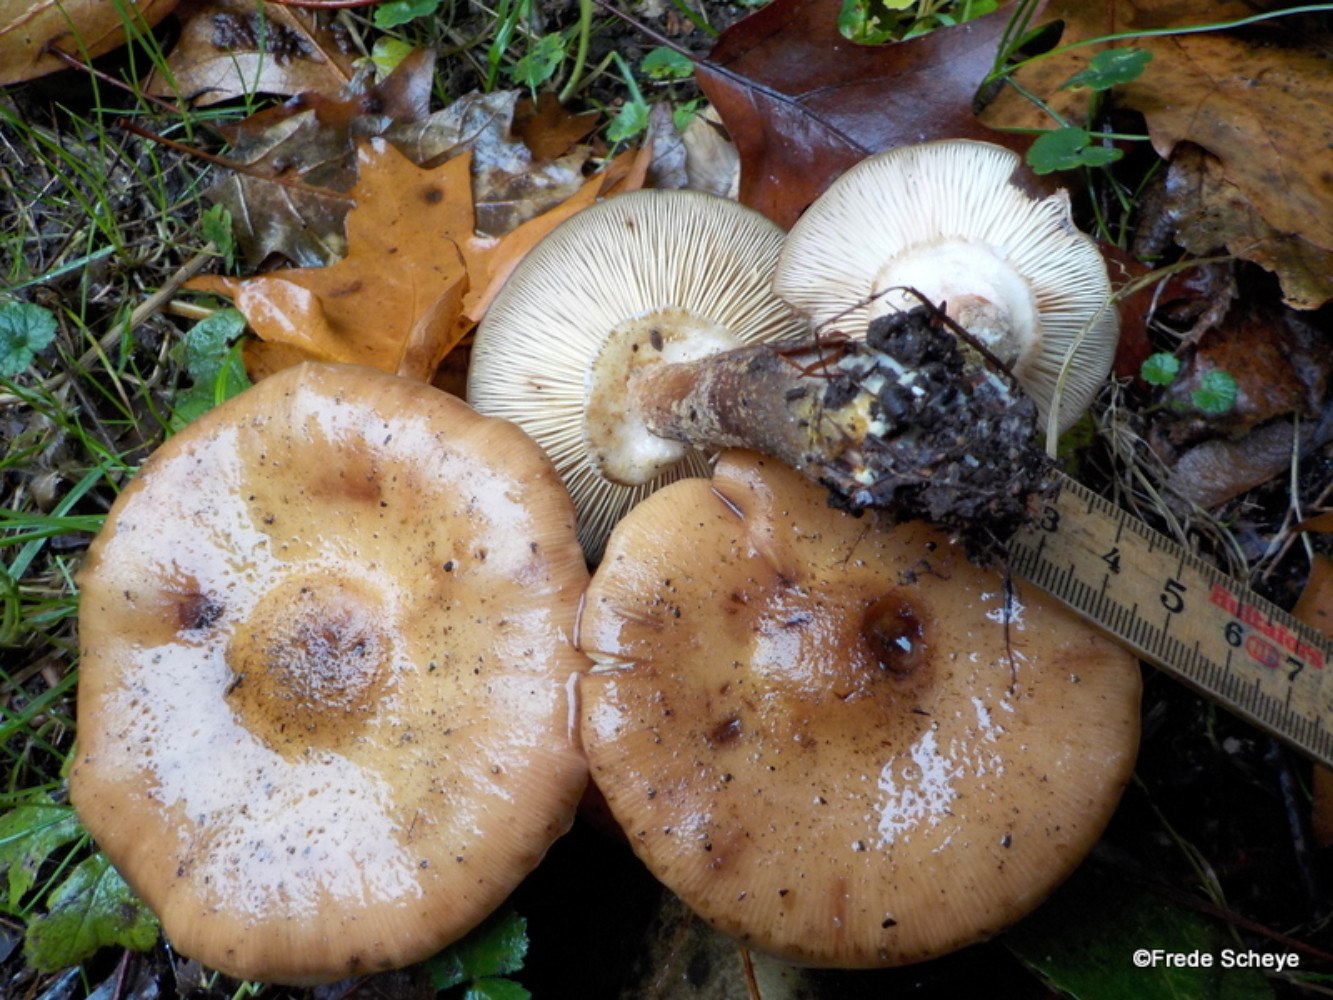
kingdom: Fungi
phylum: Basidiomycota
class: Agaricomycetes
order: Agaricales
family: Physalacriaceae
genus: Armillaria
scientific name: Armillaria mellea
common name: ægte honningsvamp
